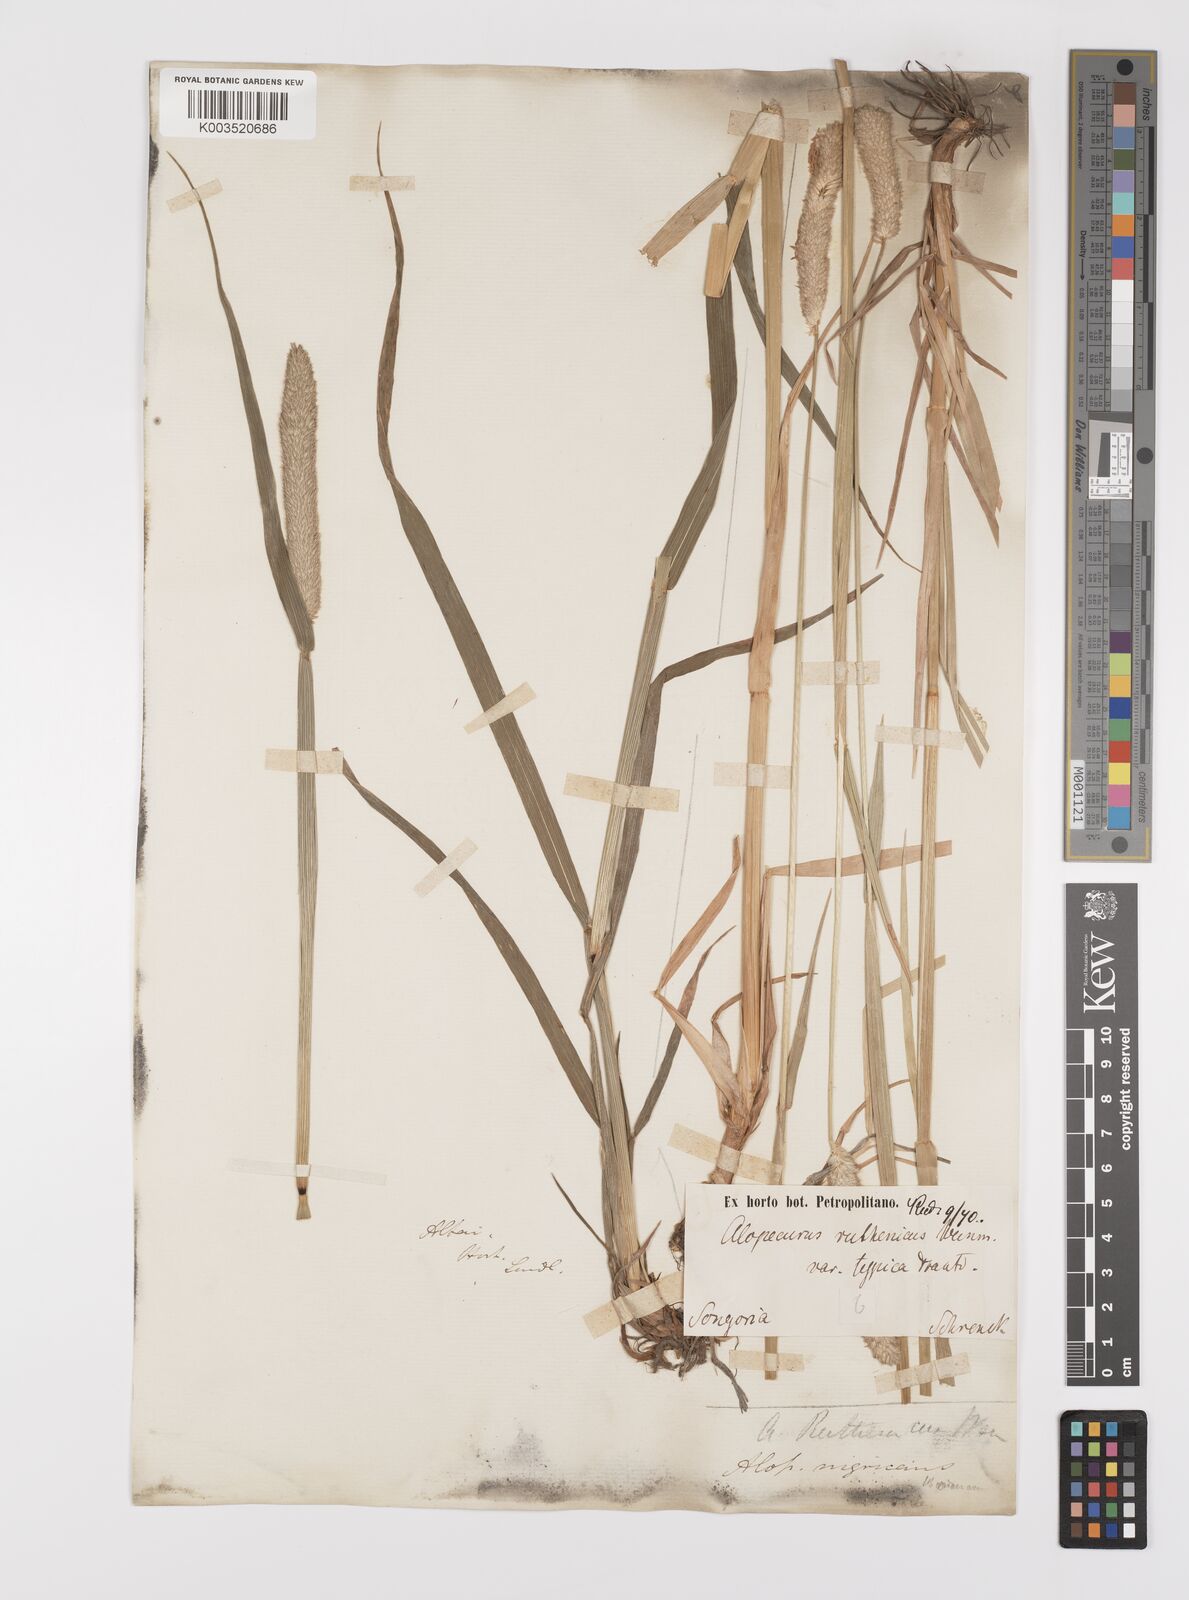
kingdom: Plantae
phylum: Tracheophyta
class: Liliopsida
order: Poales
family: Poaceae
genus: Alopecurus
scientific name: Alopecurus arundinaceus
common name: Creeping meadow foxtail
